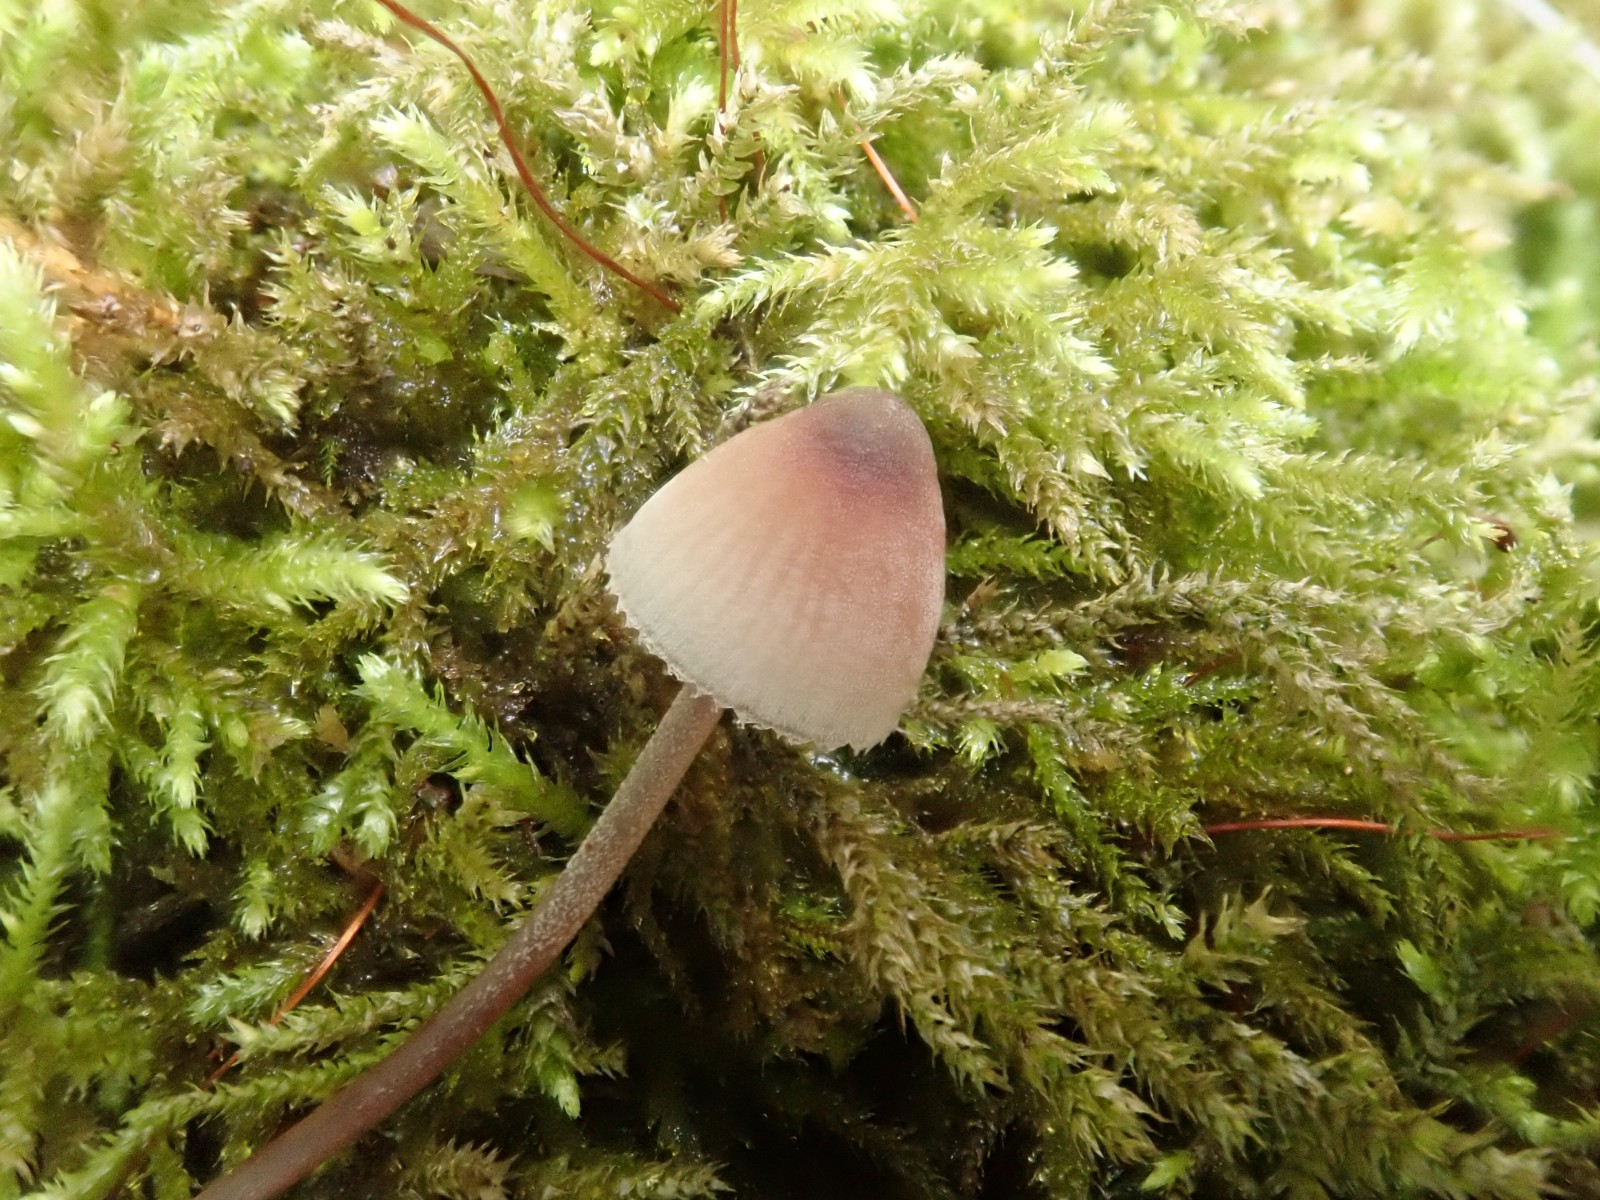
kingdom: Fungi
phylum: Basidiomycota
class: Agaricomycetes
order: Agaricales
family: Mycenaceae
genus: Mycena
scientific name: Mycena haematopus
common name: blødende huesvamp
